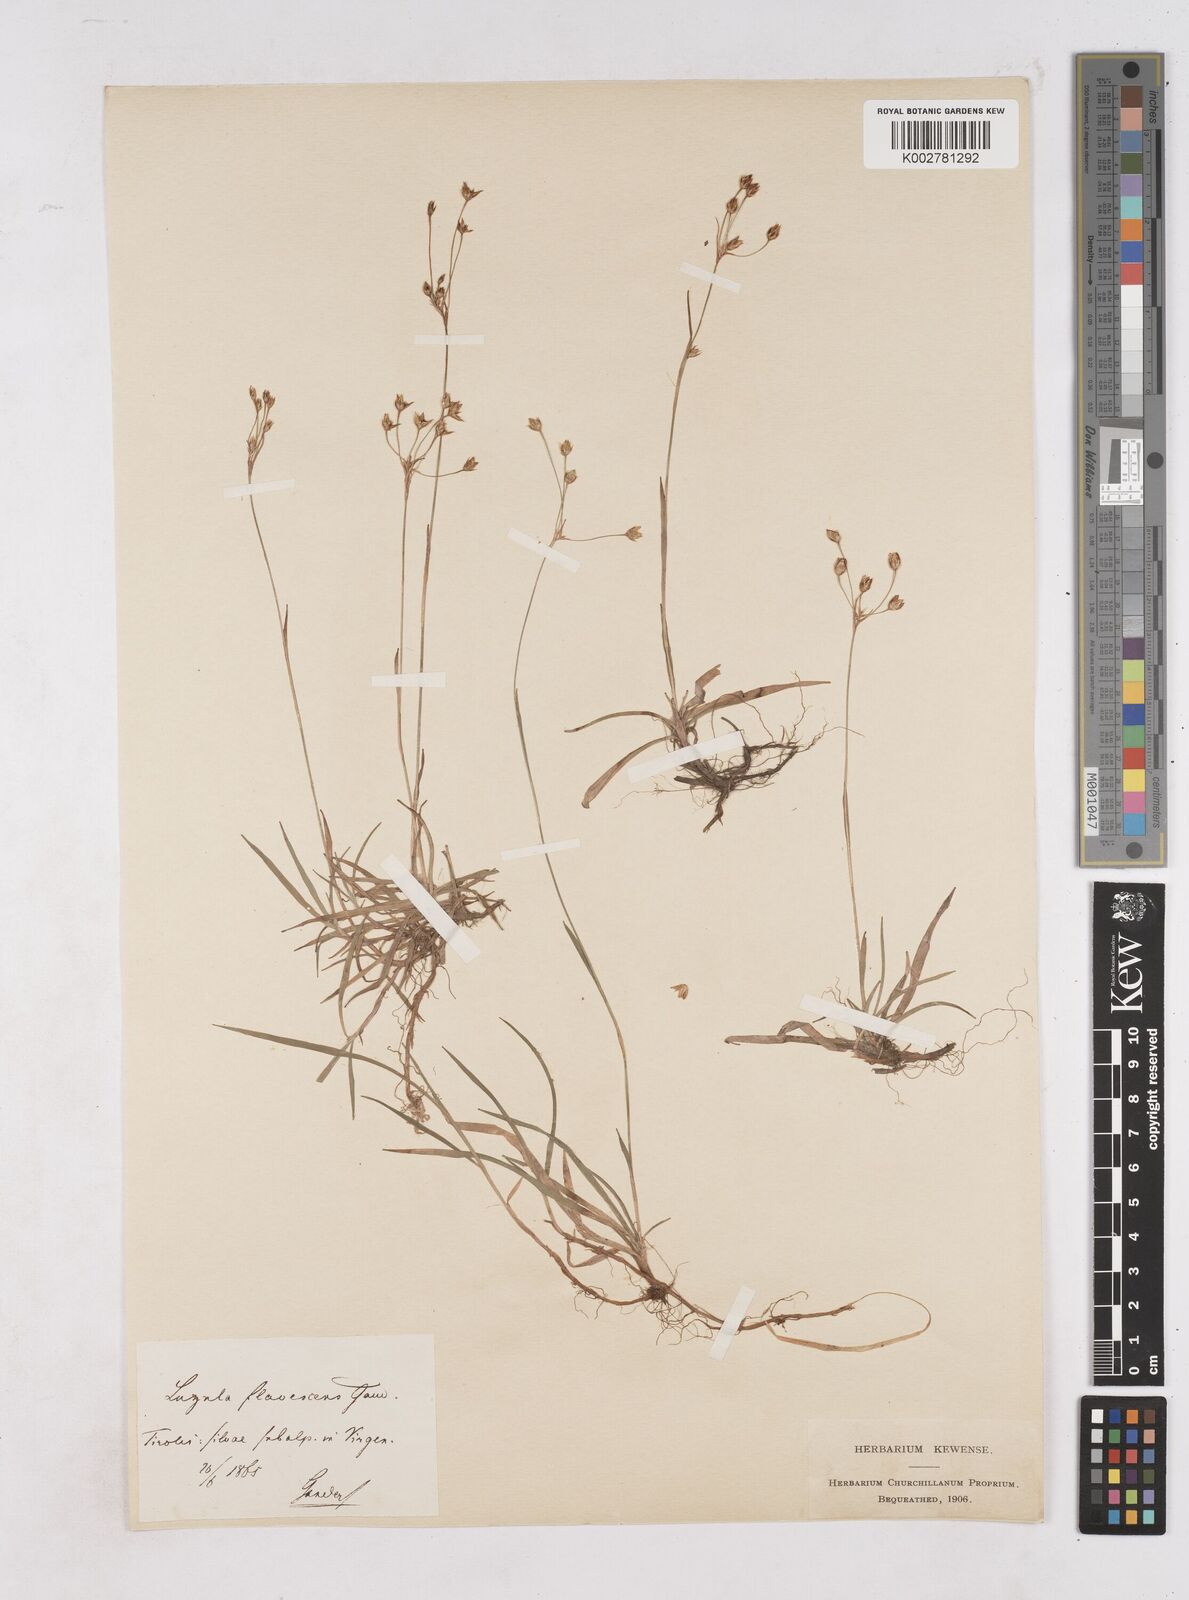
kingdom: Plantae
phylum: Tracheophyta
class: Liliopsida
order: Poales
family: Juncaceae
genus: Luzula
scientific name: Luzula luzulina
